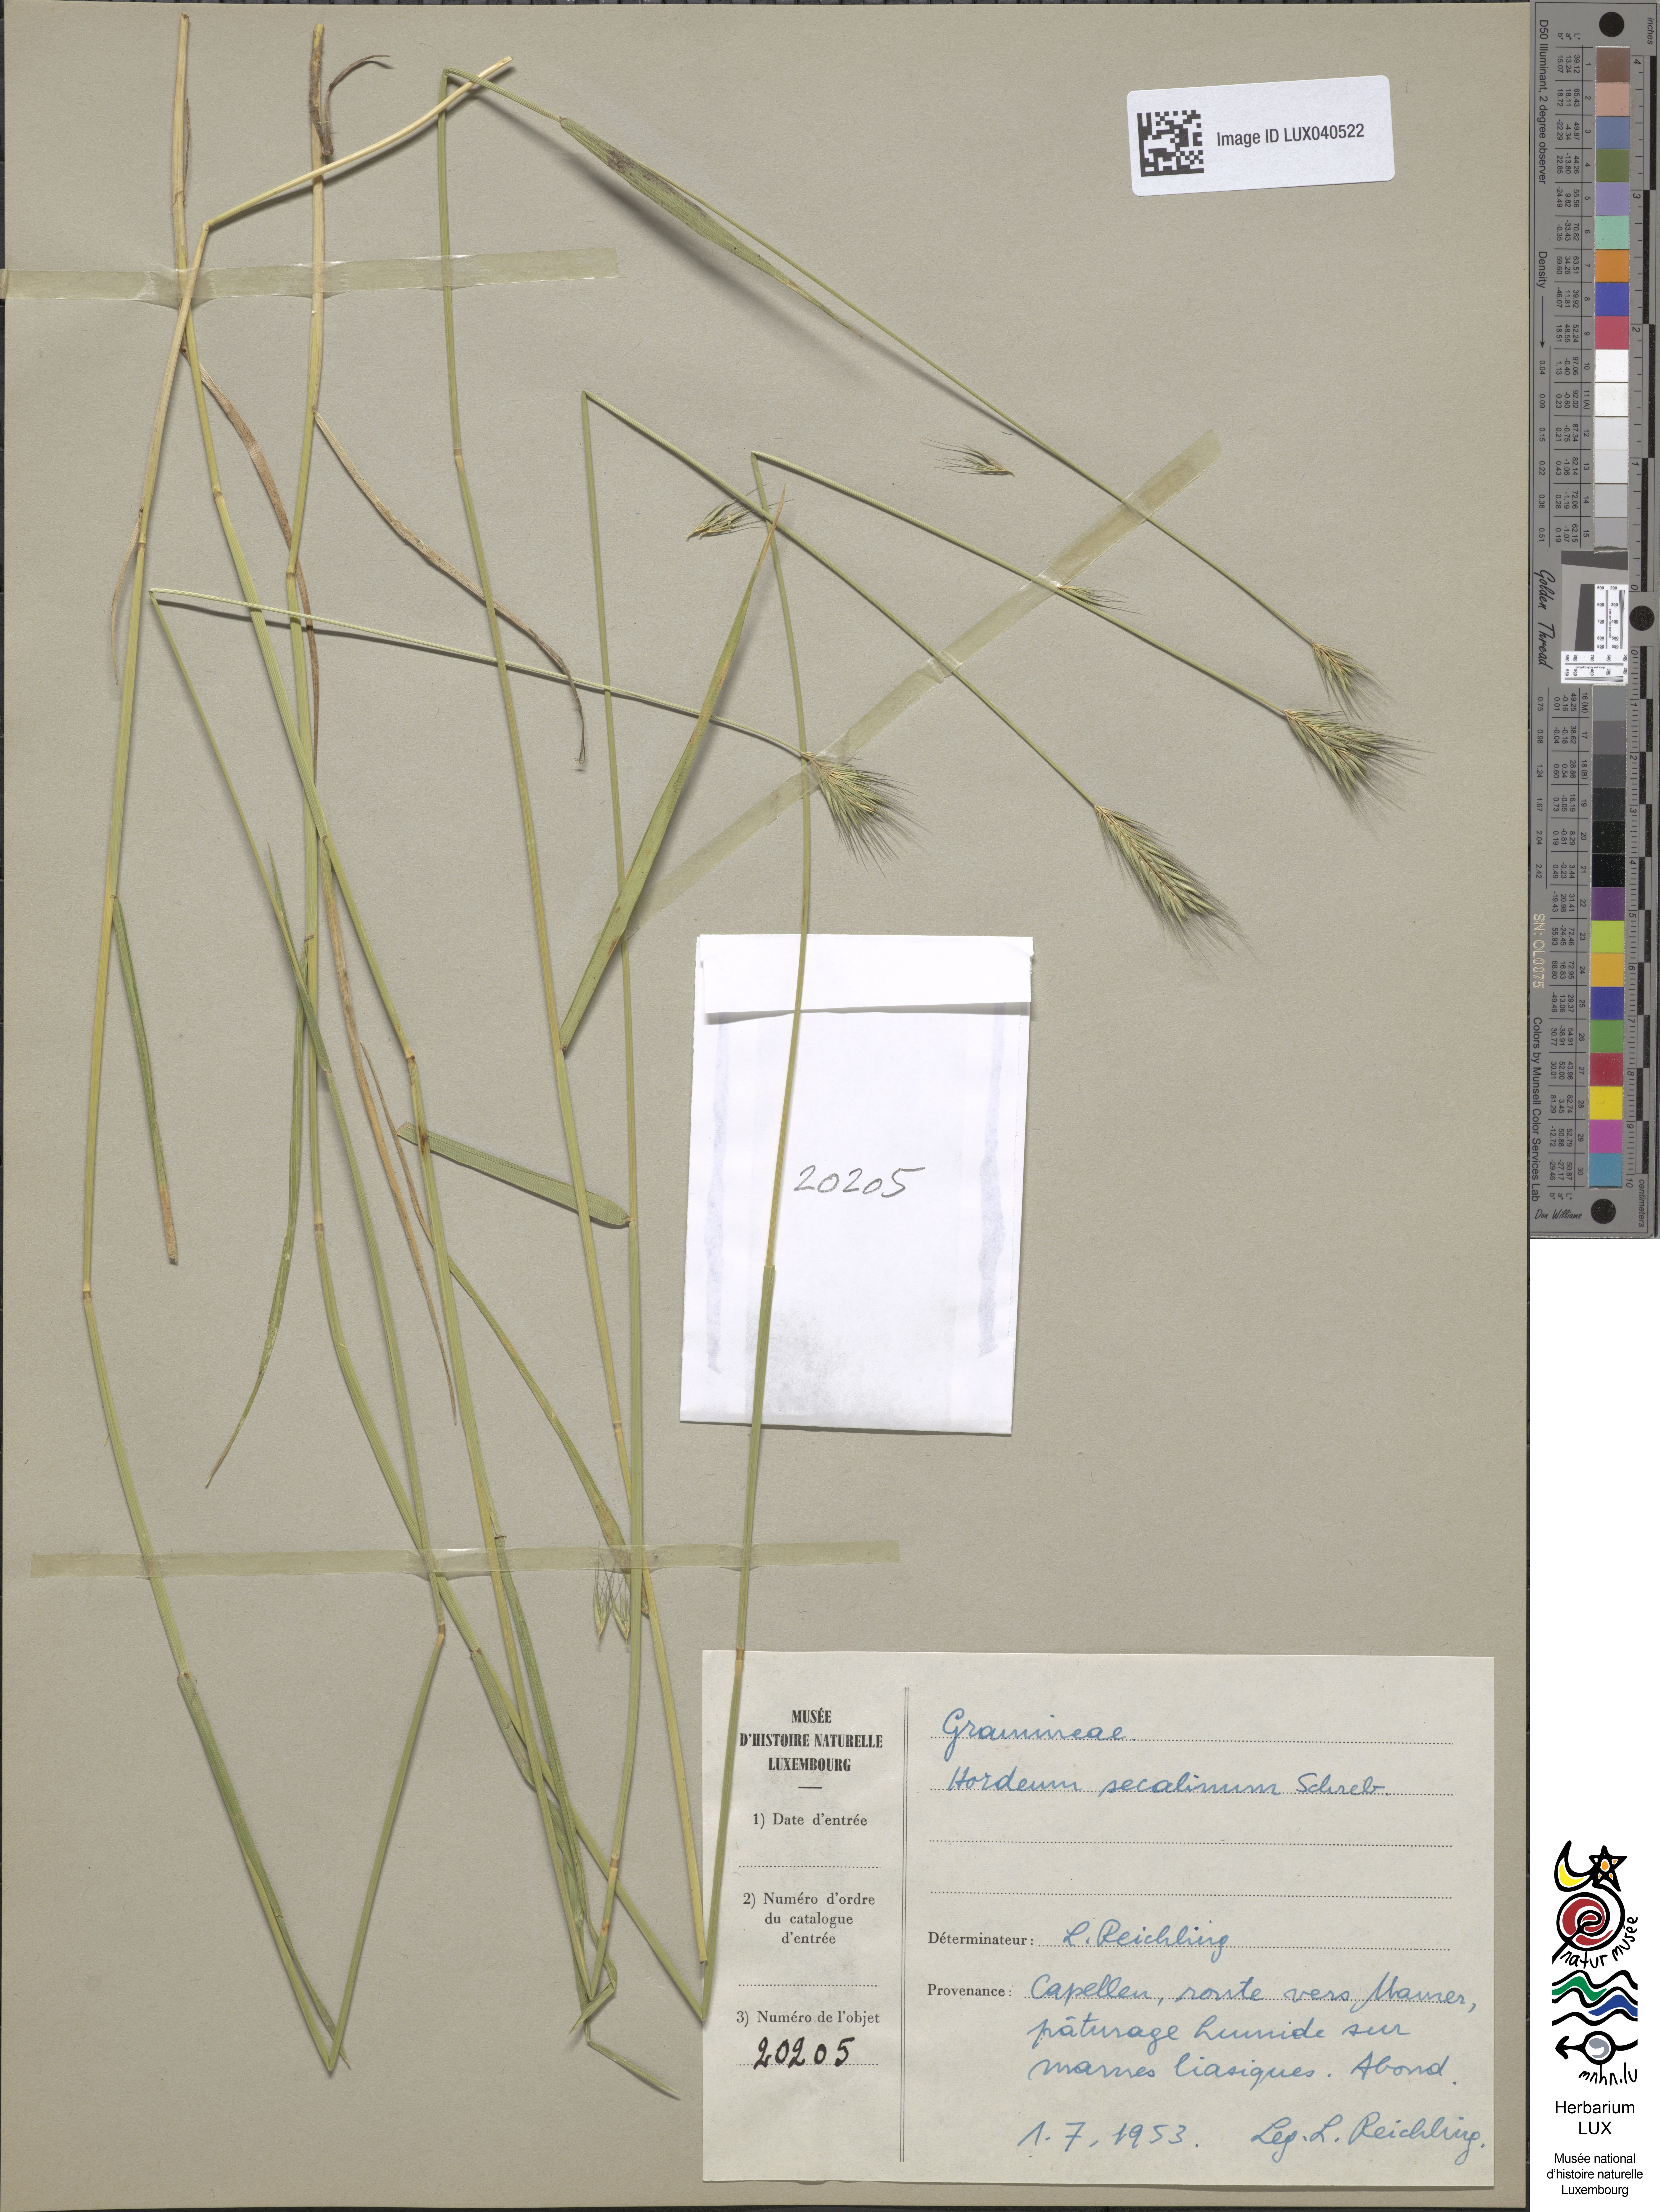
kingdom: Plantae
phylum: Tracheophyta
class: Liliopsida
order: Poales
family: Poaceae
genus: Hordeum
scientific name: Hordeum secalinum
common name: Meadow barley
